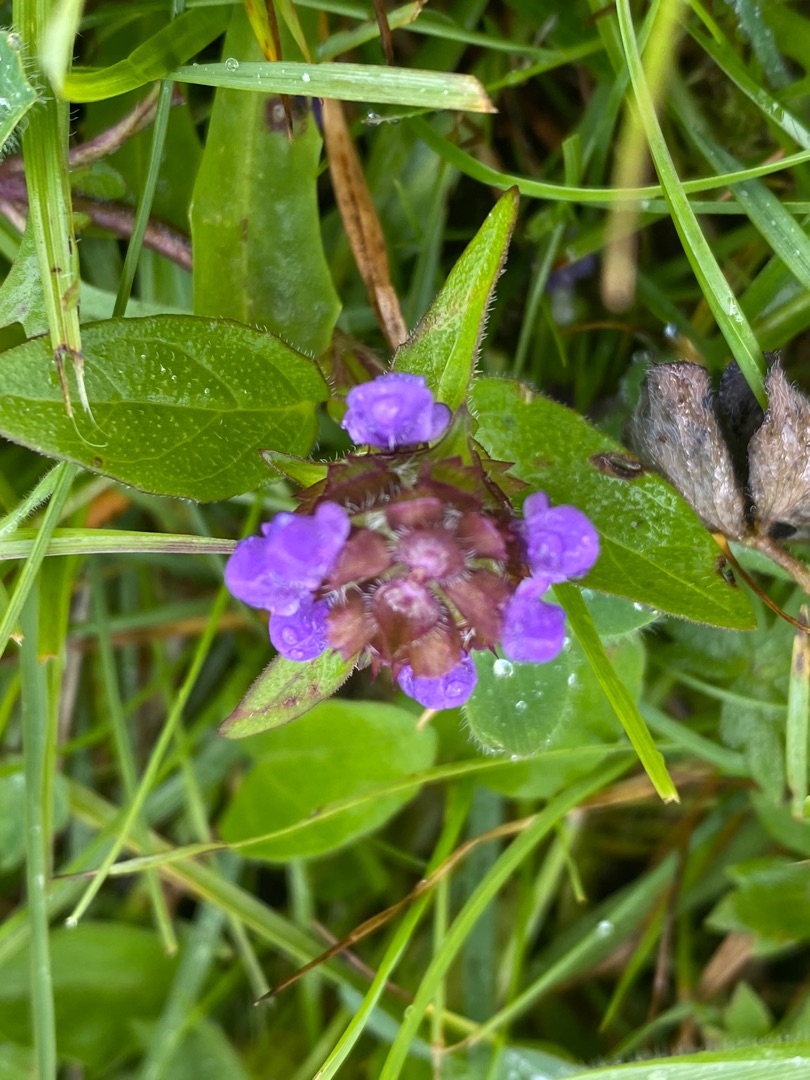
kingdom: Plantae
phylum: Tracheophyta
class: Magnoliopsida
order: Lamiales
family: Lamiaceae
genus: Prunella
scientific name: Prunella vulgaris
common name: Almindelig brunelle
